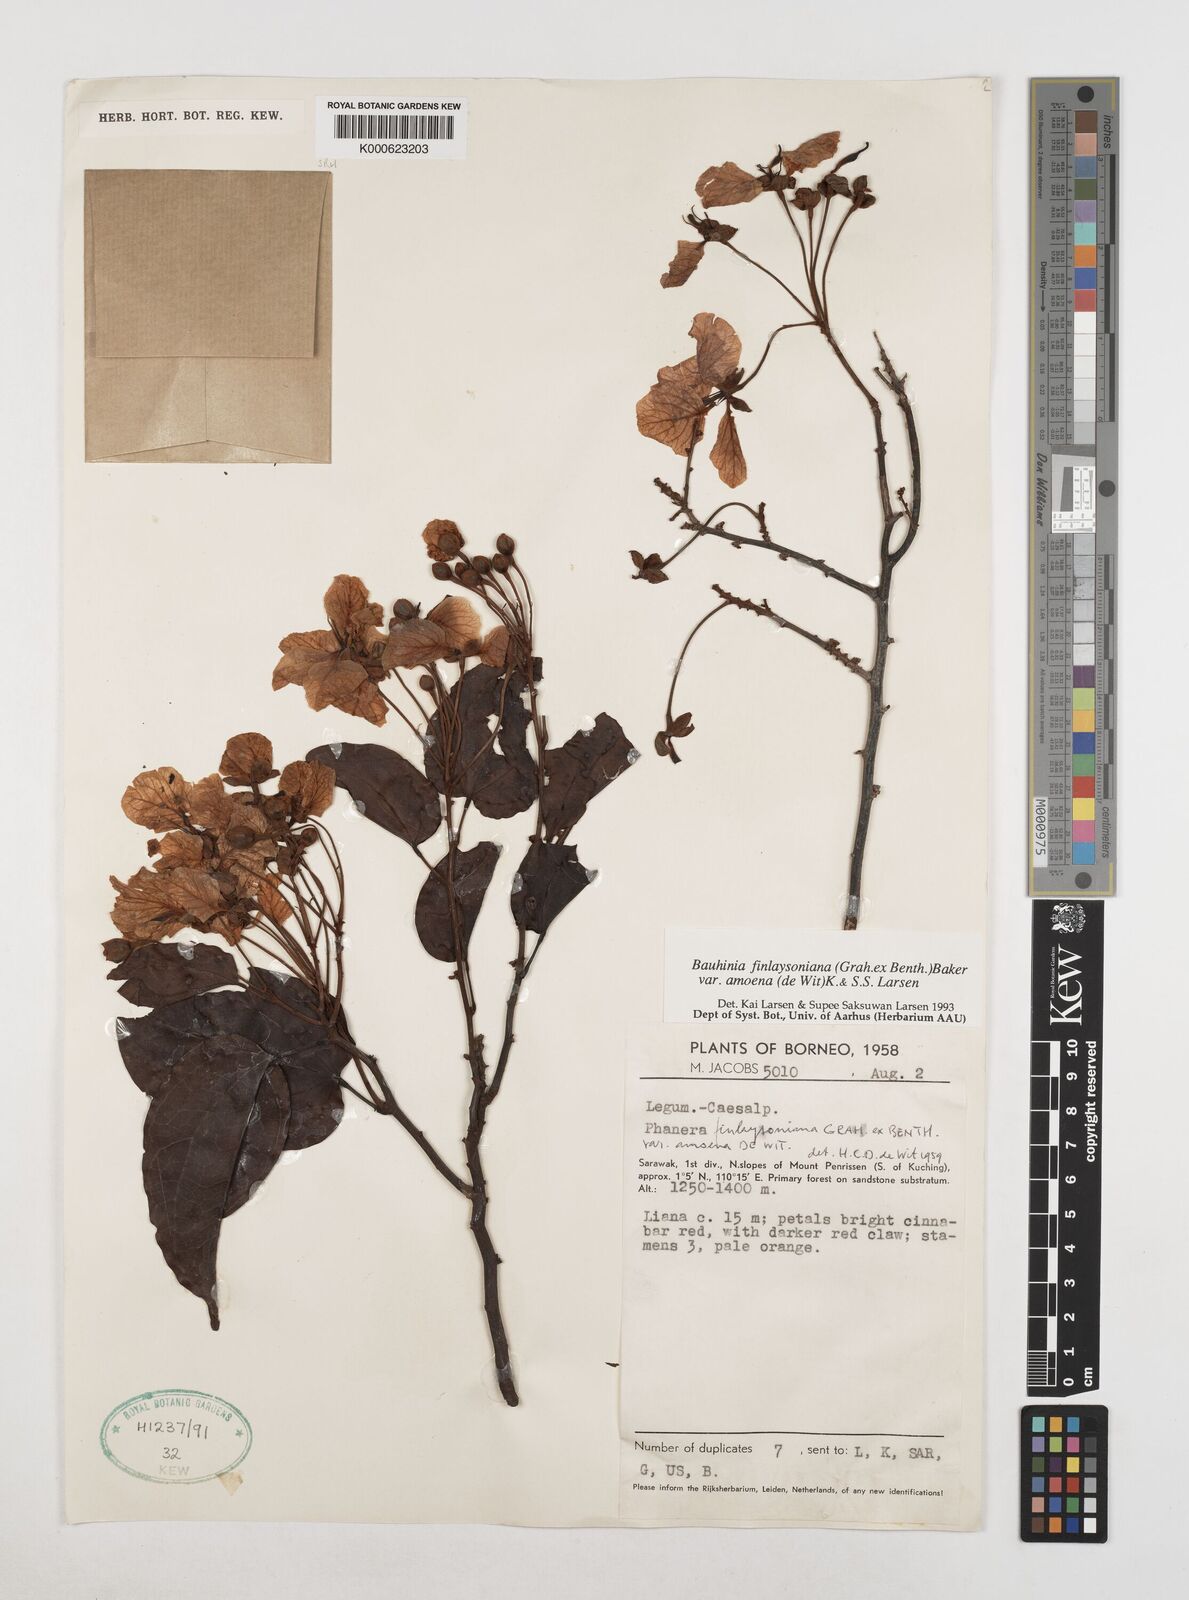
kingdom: Plantae
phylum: Tracheophyta
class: Magnoliopsida
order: Fabales
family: Fabaceae
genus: Phanera
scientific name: Phanera finlaysoniana
